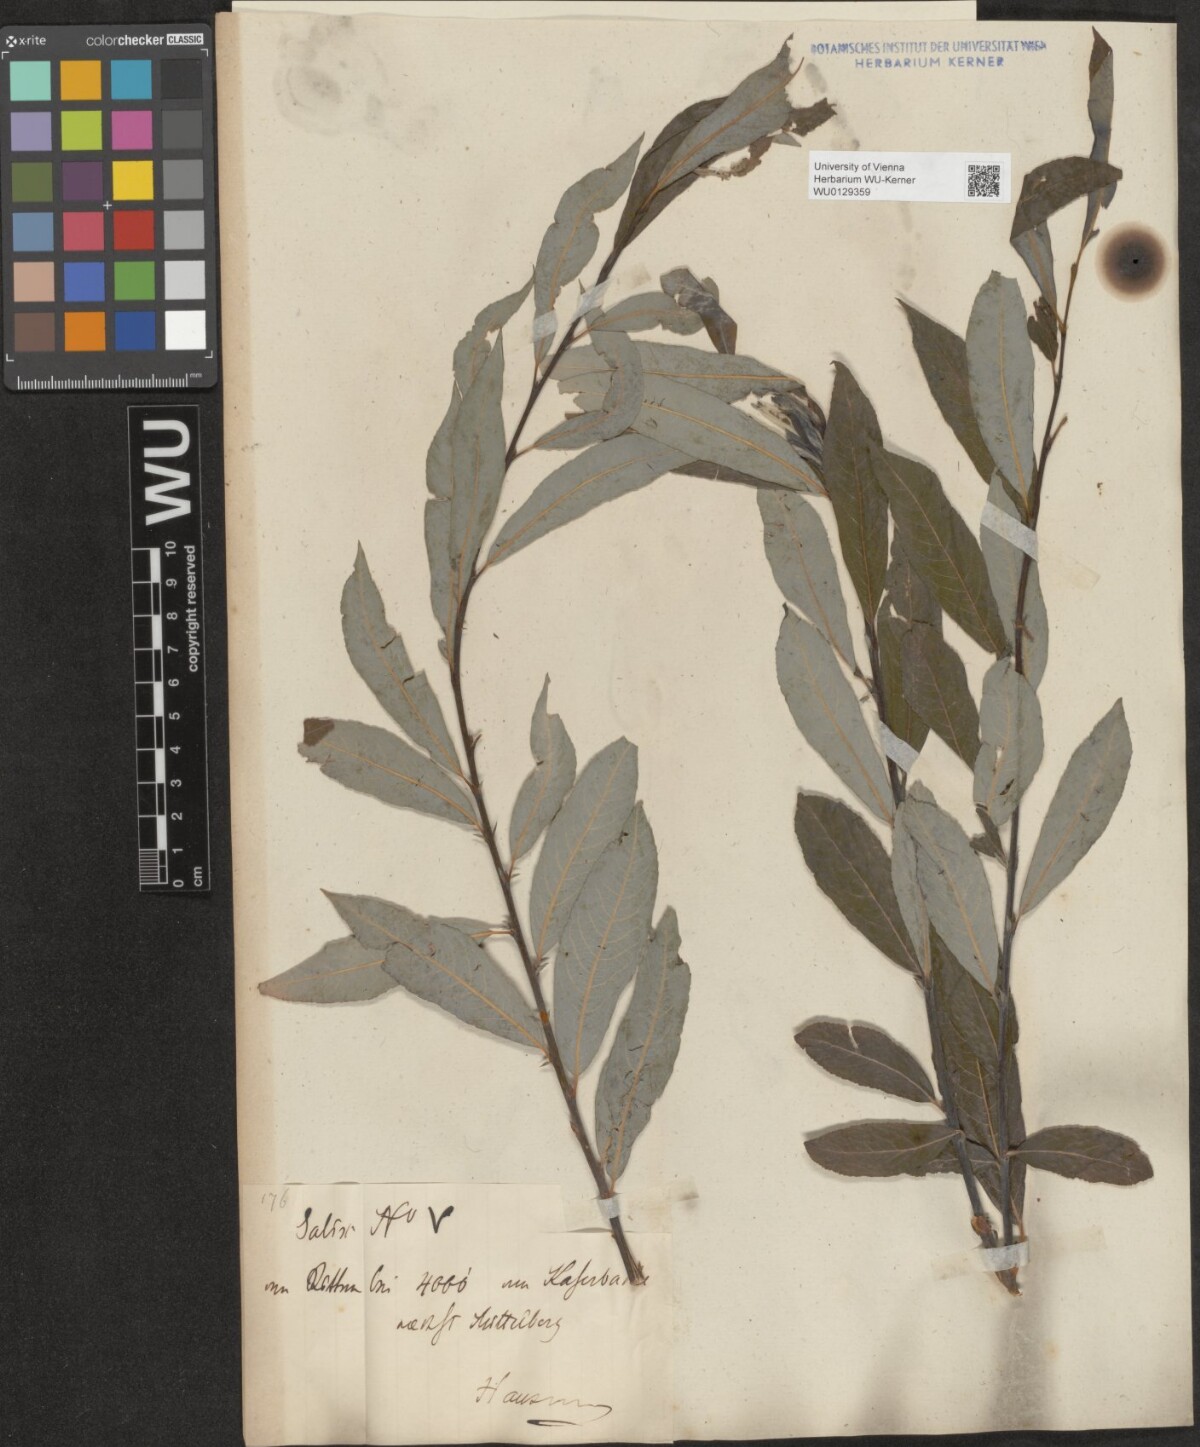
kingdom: Plantae
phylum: Tracheophyta
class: Magnoliopsida
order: Malpighiales
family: Salicaceae
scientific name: Salicaceae
